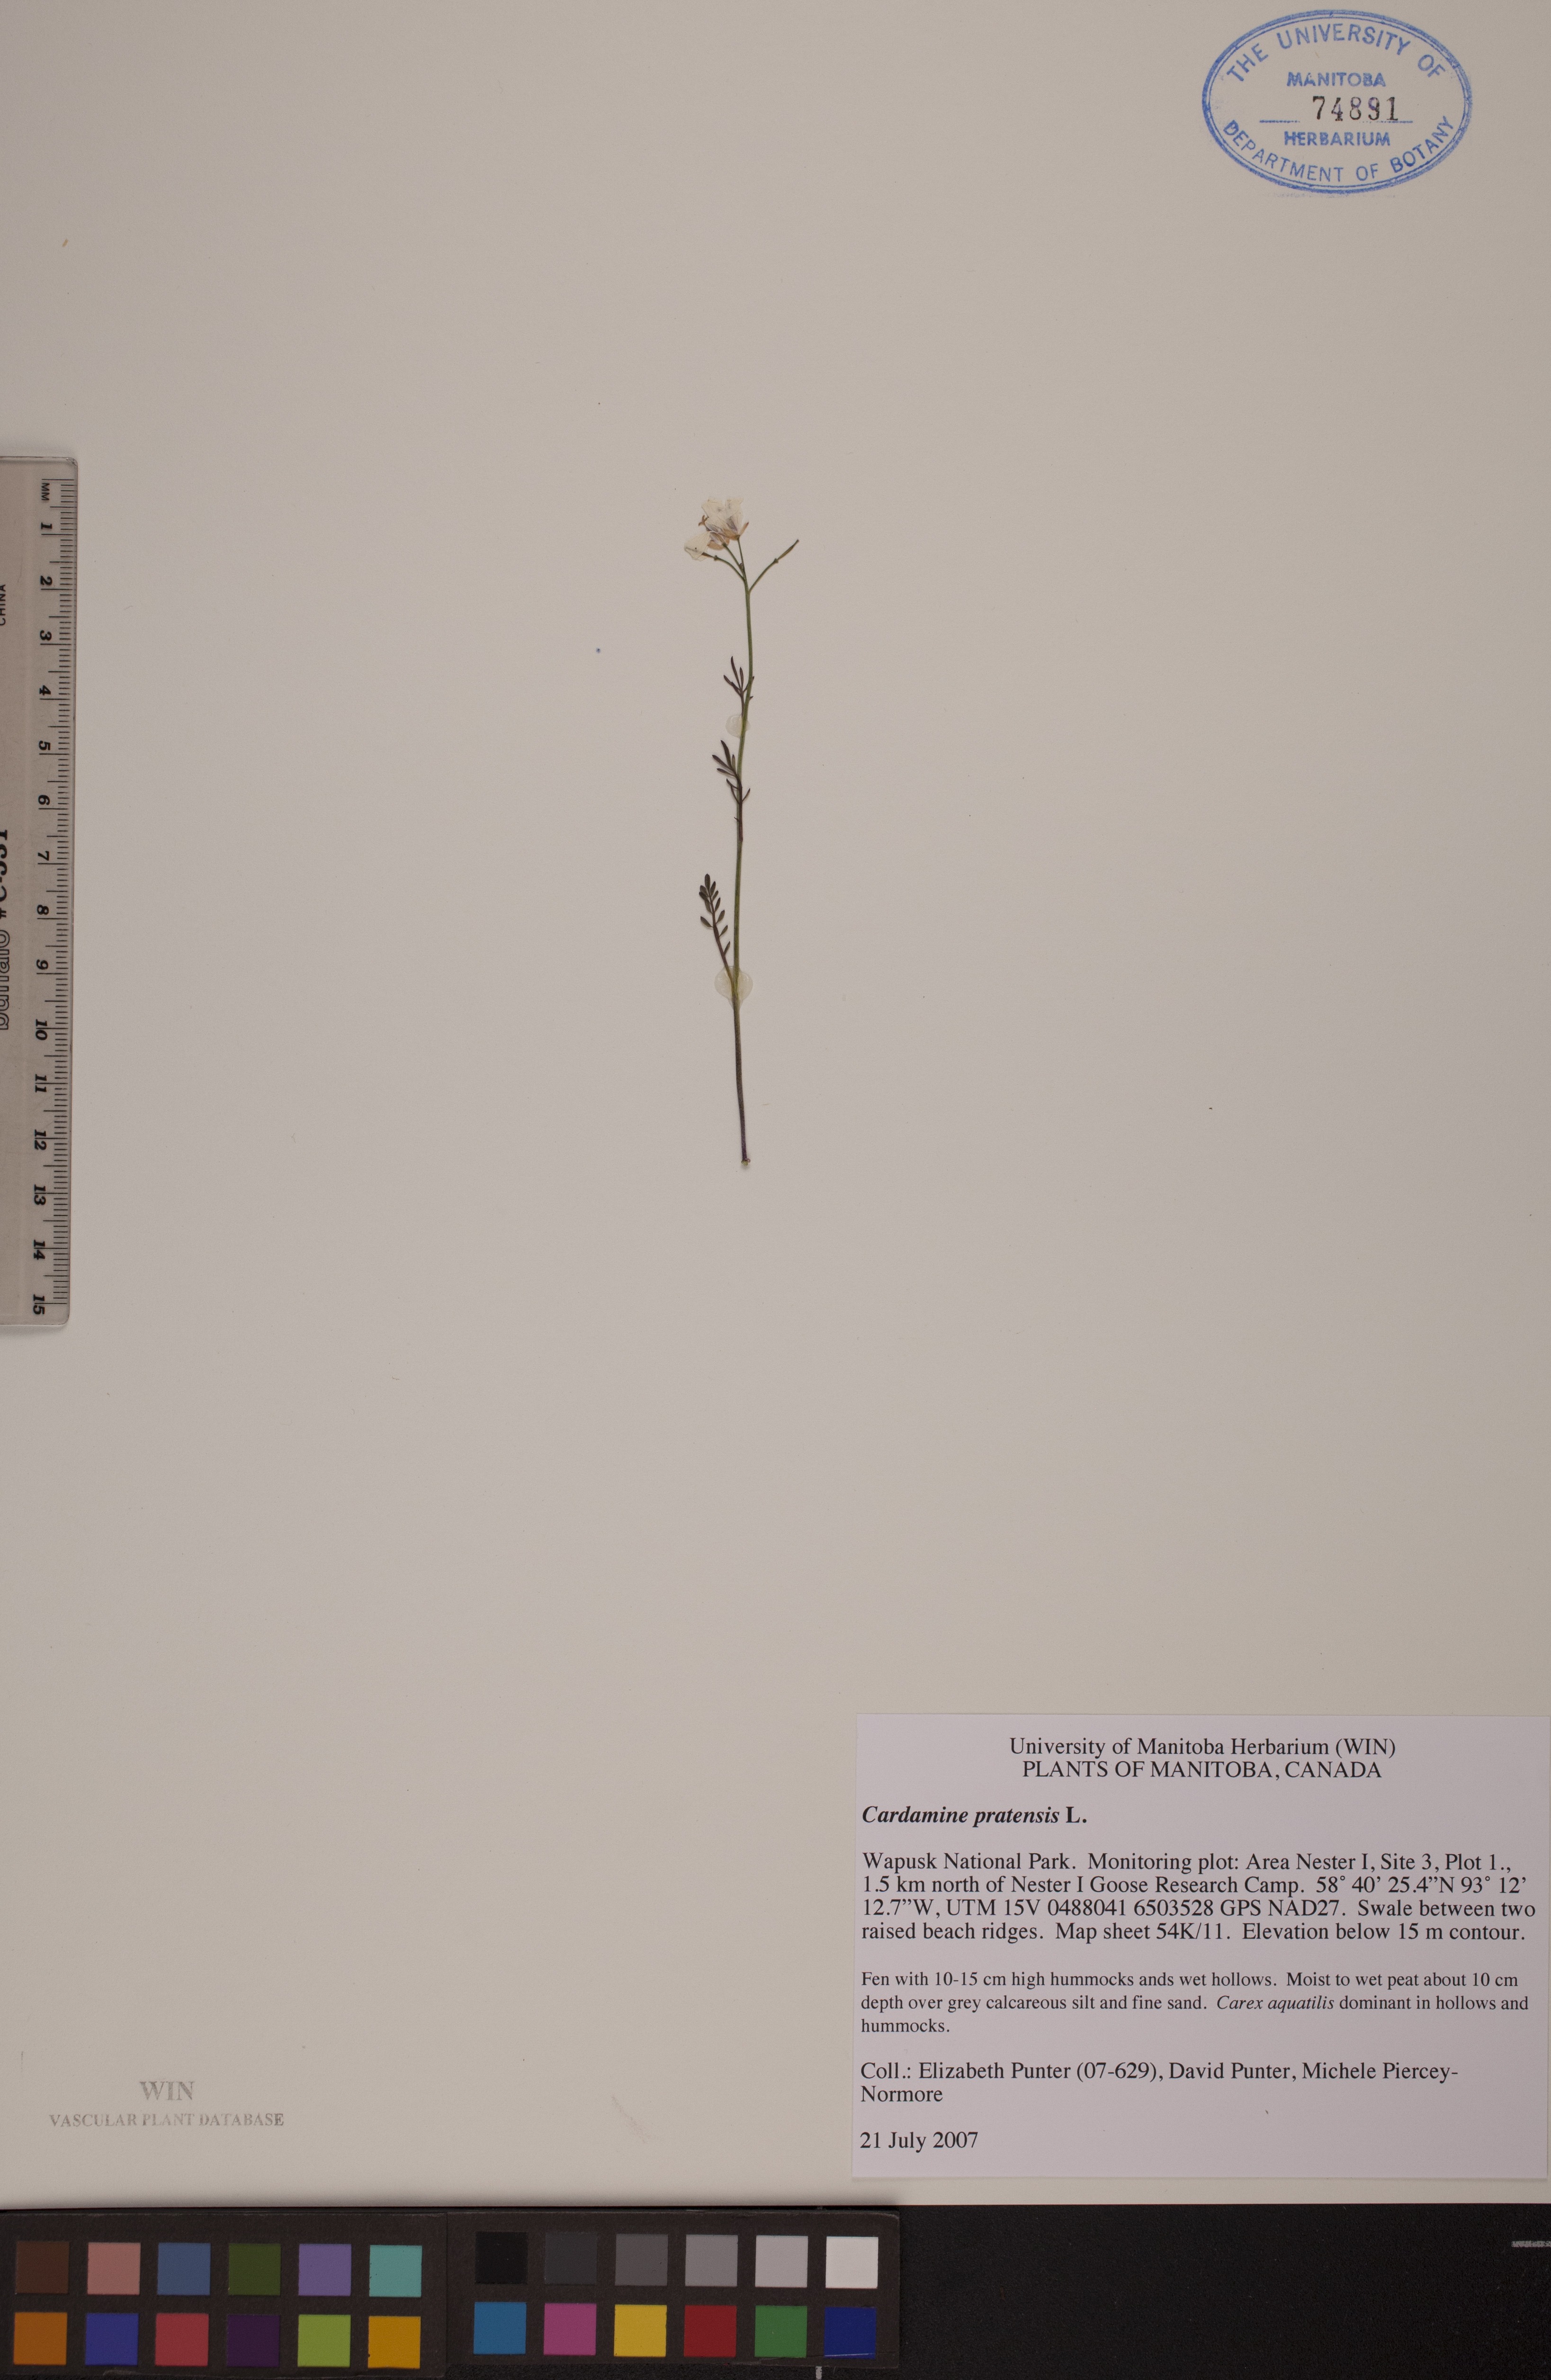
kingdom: Plantae
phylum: Tracheophyta
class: Magnoliopsida
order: Brassicales
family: Brassicaceae
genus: Cardamine
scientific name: Cardamine nymanii
